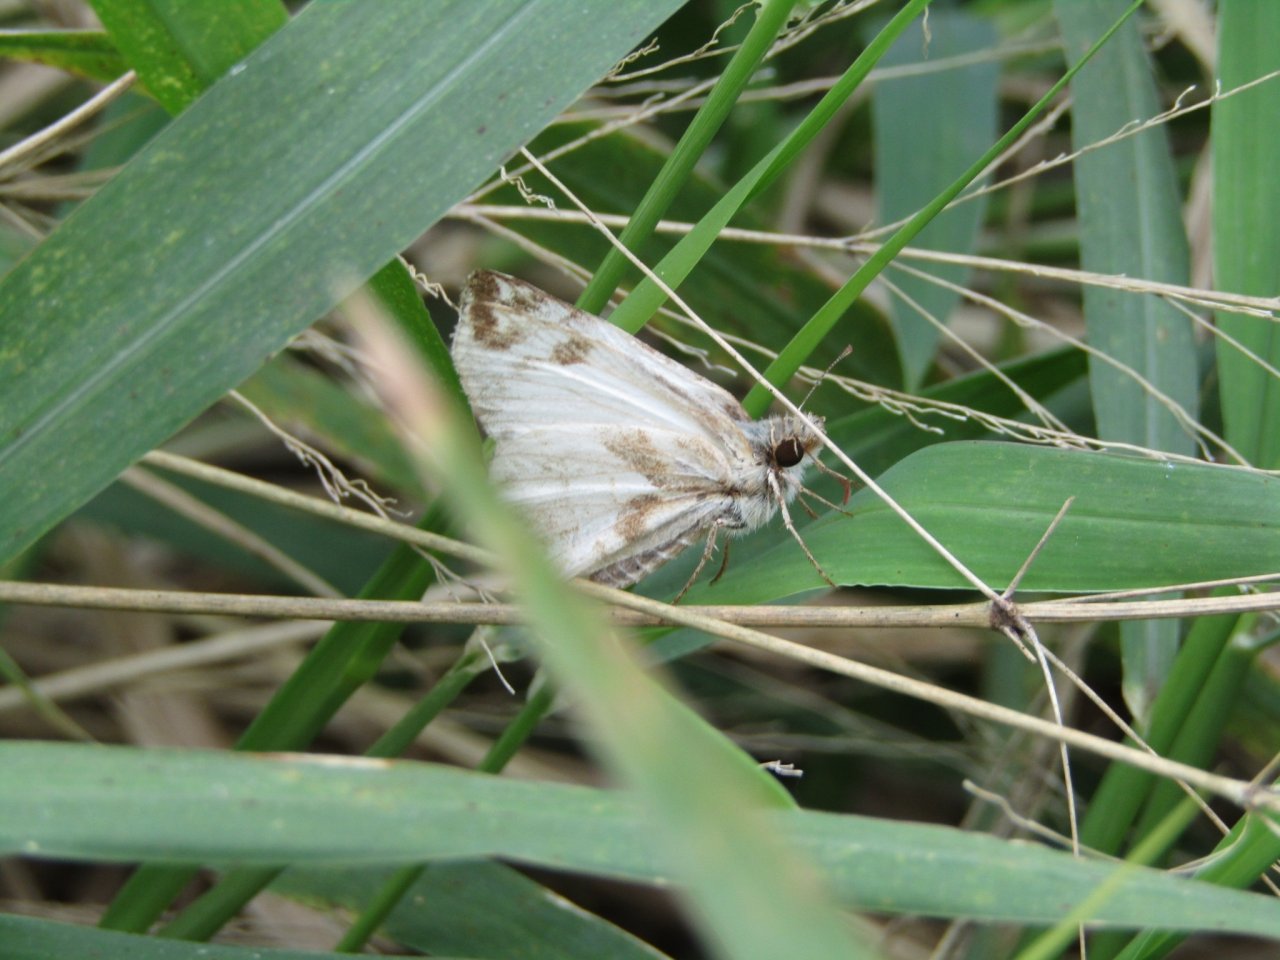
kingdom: Animalia
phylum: Arthropoda
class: Insecta
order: Lepidoptera
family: Hesperiidae
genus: Heliopetes
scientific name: Heliopetes laviana
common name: Laviana White-Skipper
